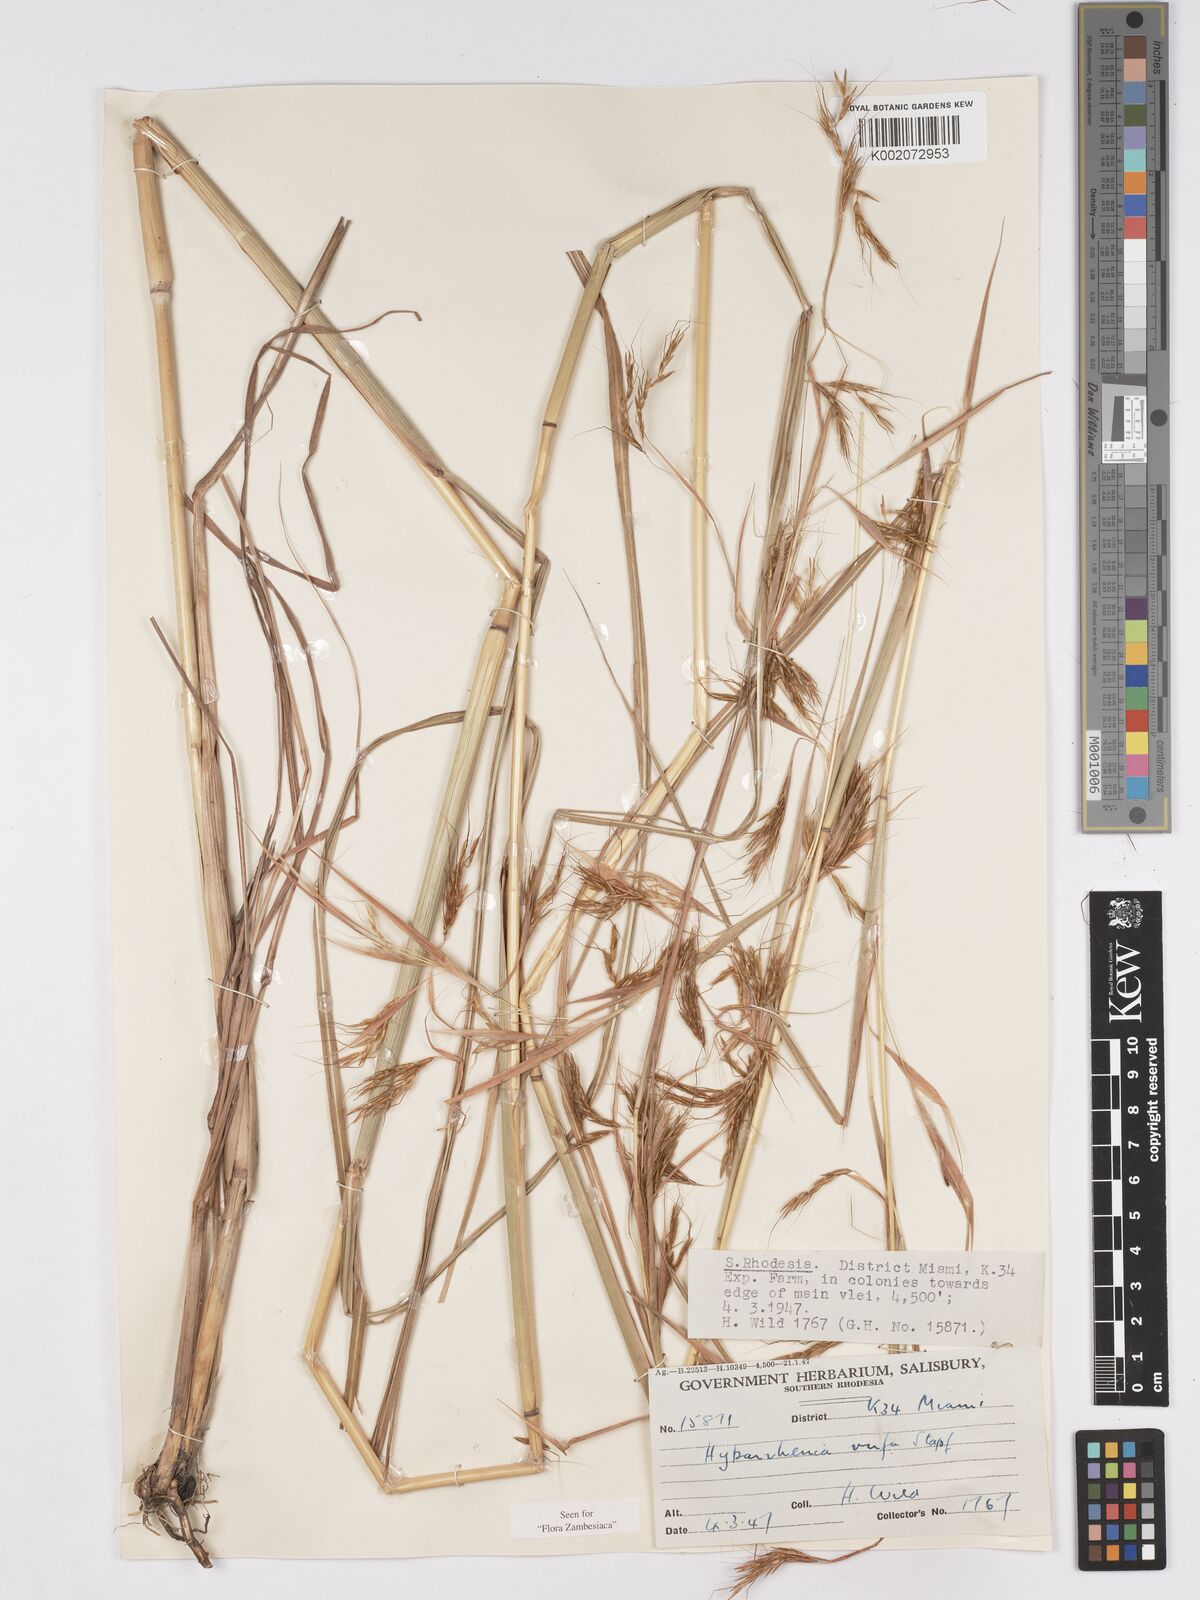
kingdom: Plantae
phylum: Tracheophyta
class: Liliopsida
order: Poales
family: Poaceae
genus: Hyparrhenia
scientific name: Hyparrhenia rufa
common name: Jaraguagrass
